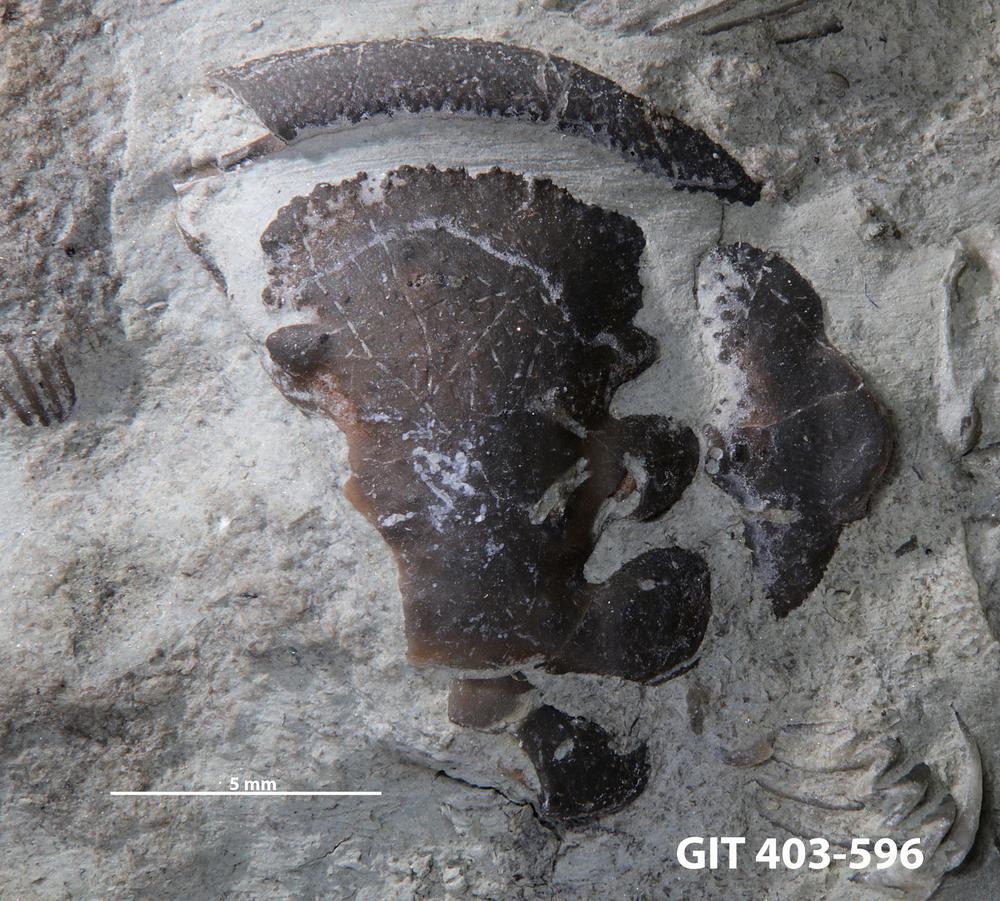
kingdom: Animalia
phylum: Arthropoda
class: Trilobita
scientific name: Trilobita
